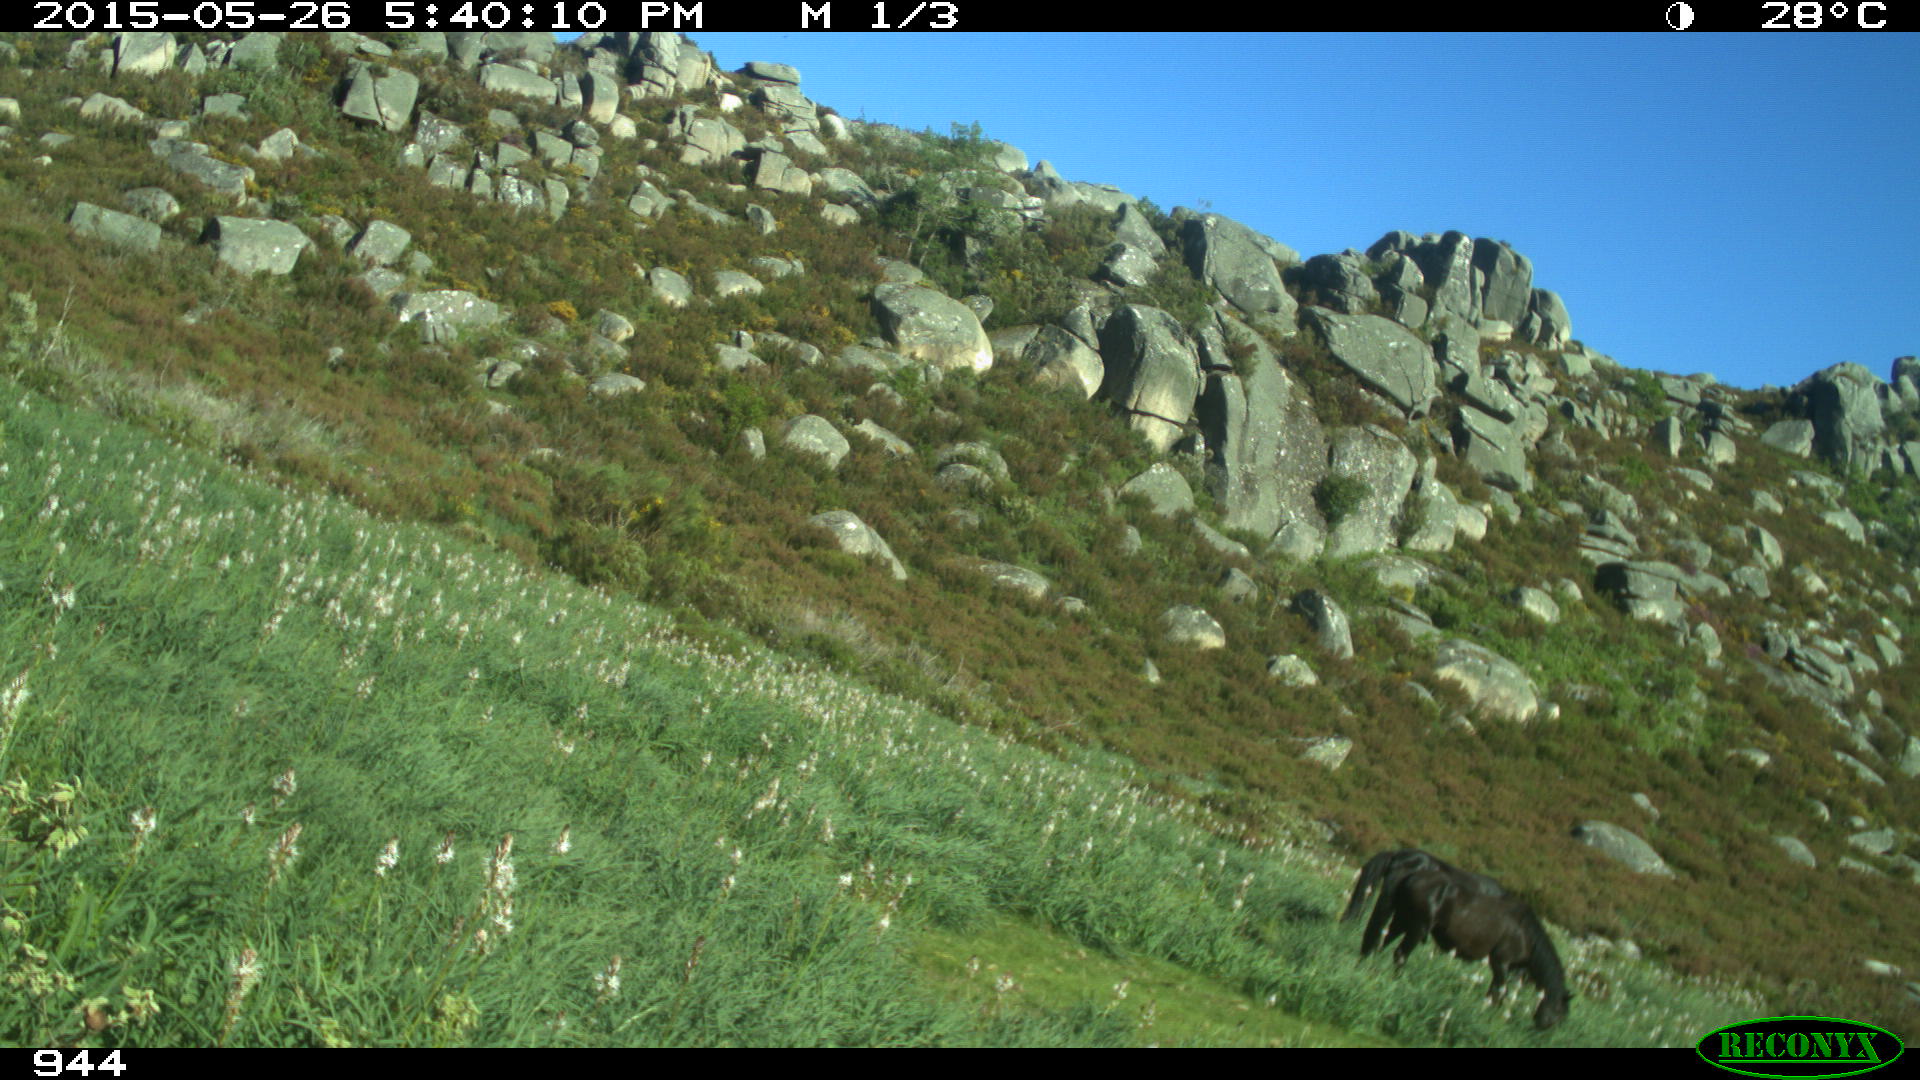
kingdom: Animalia
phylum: Chordata
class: Mammalia
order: Perissodactyla
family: Equidae
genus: Equus
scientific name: Equus caballus
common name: Horse
